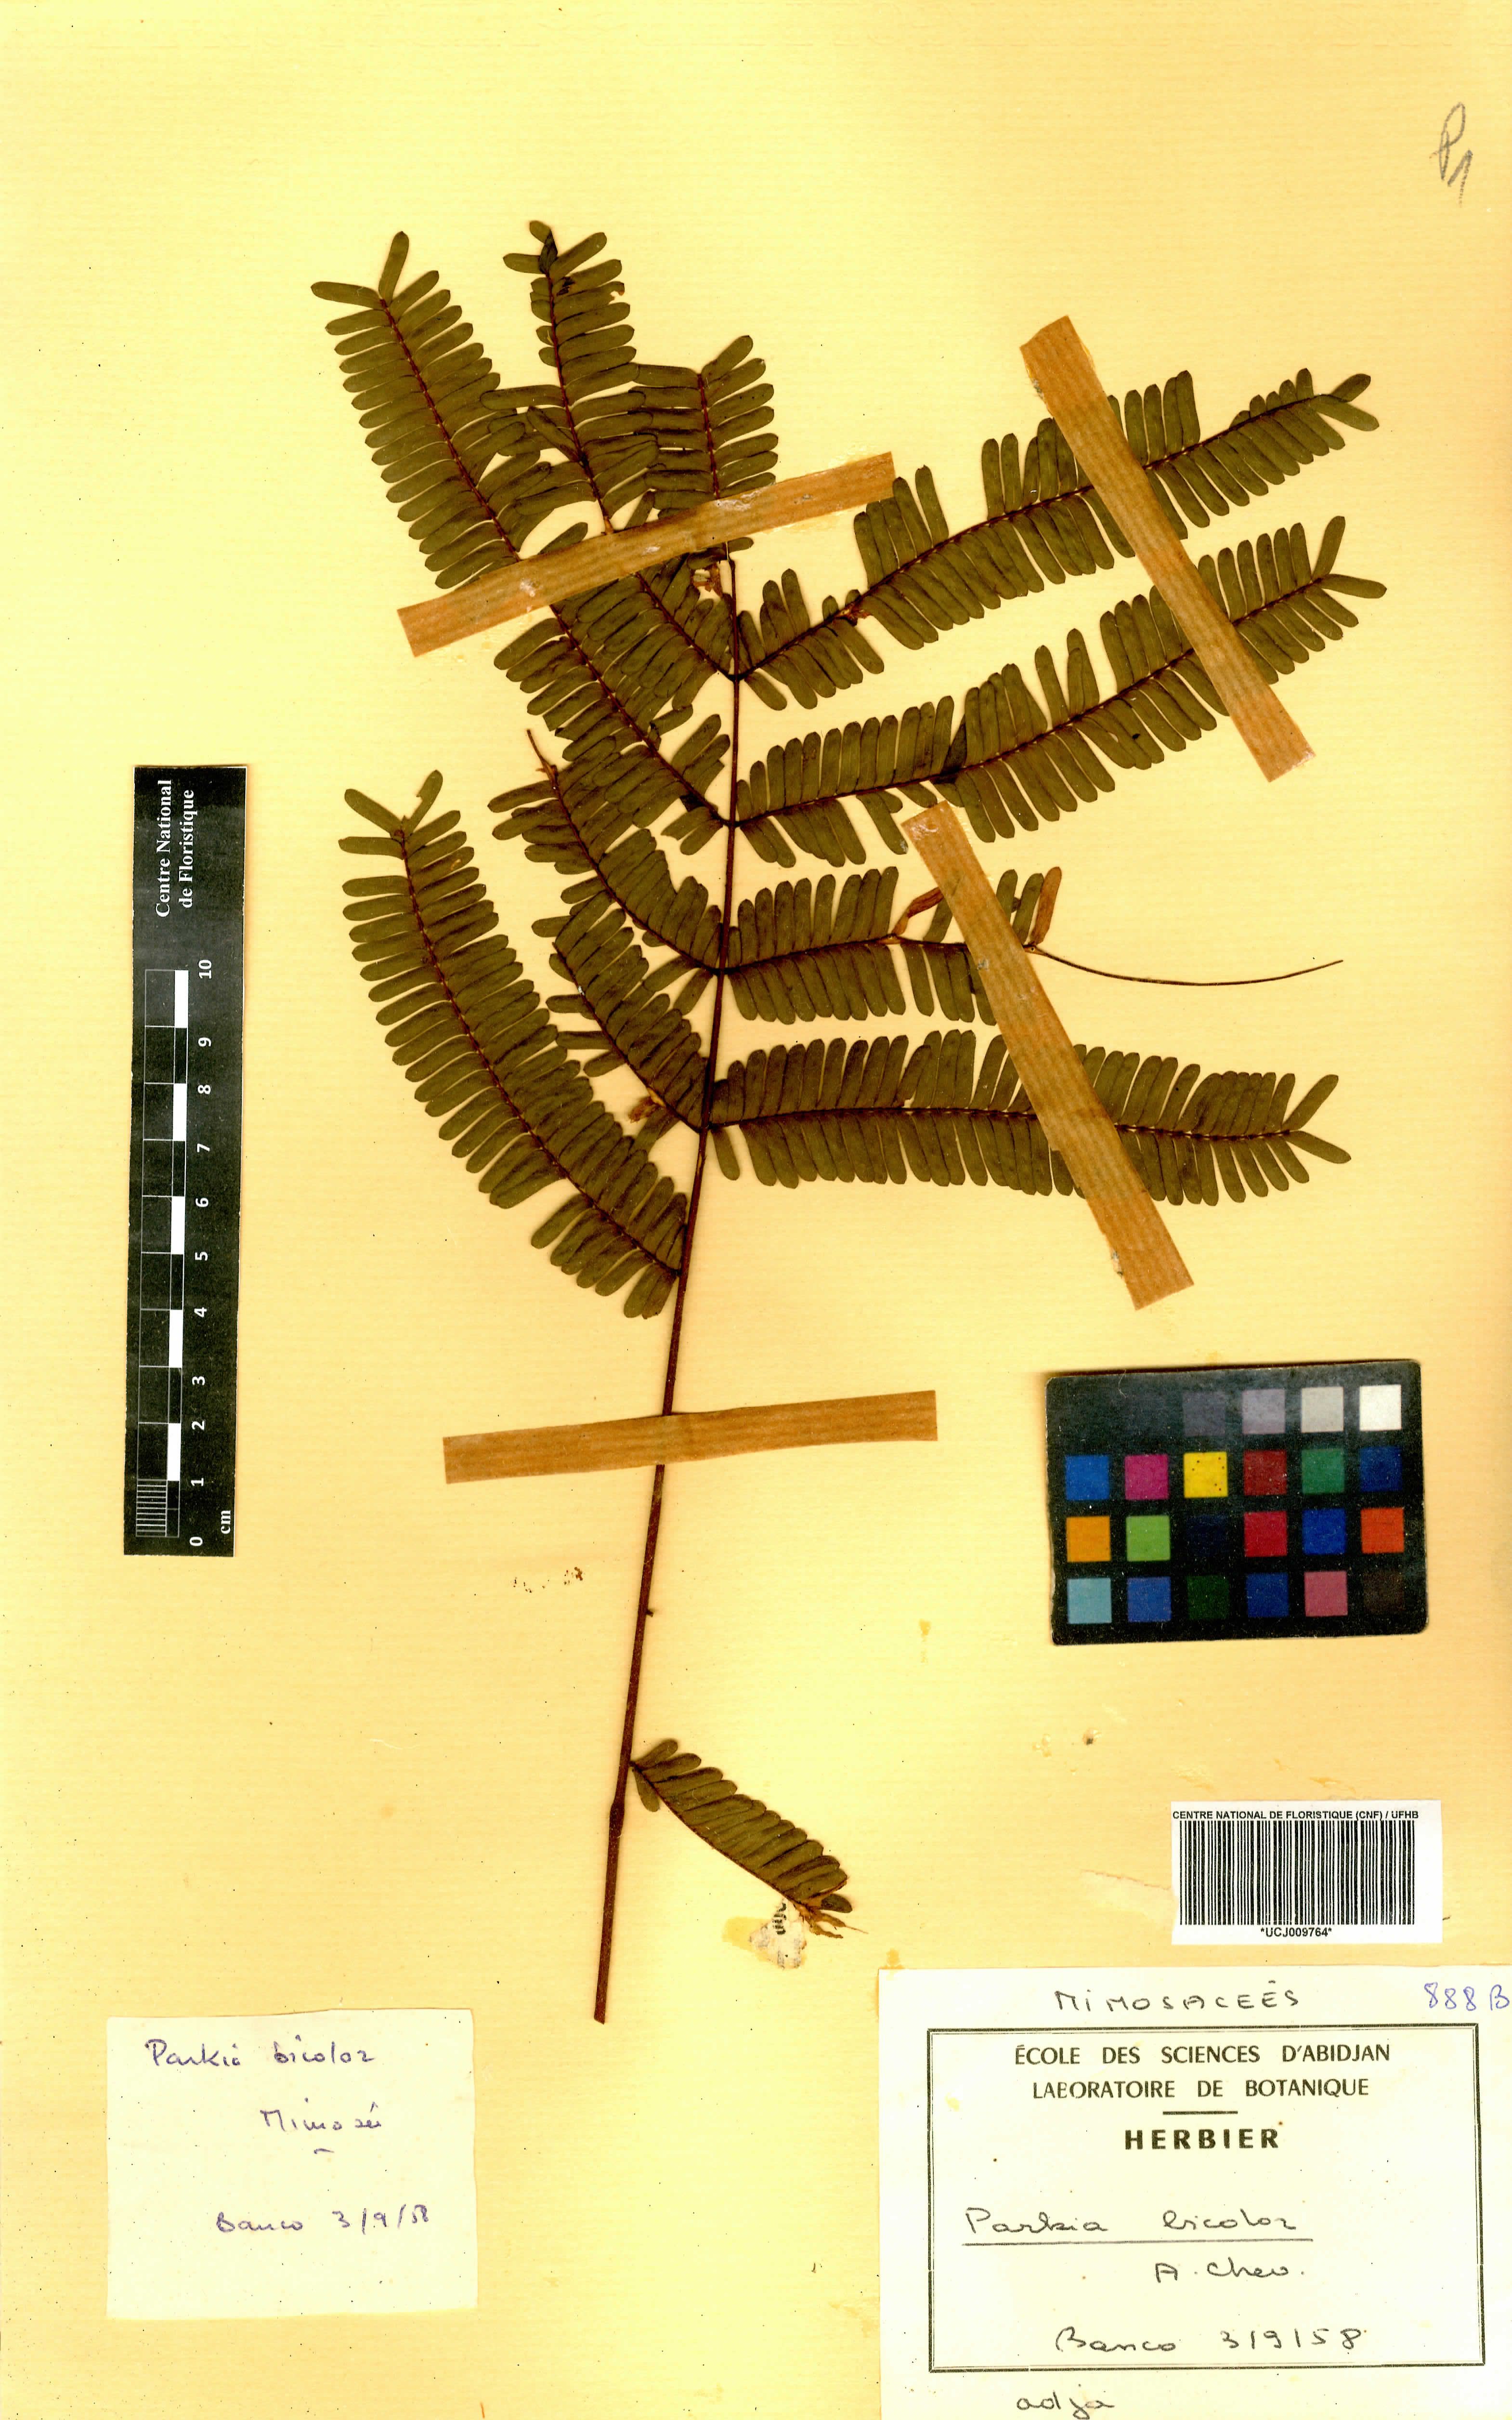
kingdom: Plantae
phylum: Tracheophyta
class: Magnoliopsida
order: Fabales
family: Fabaceae
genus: Parkia
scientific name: Parkia bicolor
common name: African locust-bean
